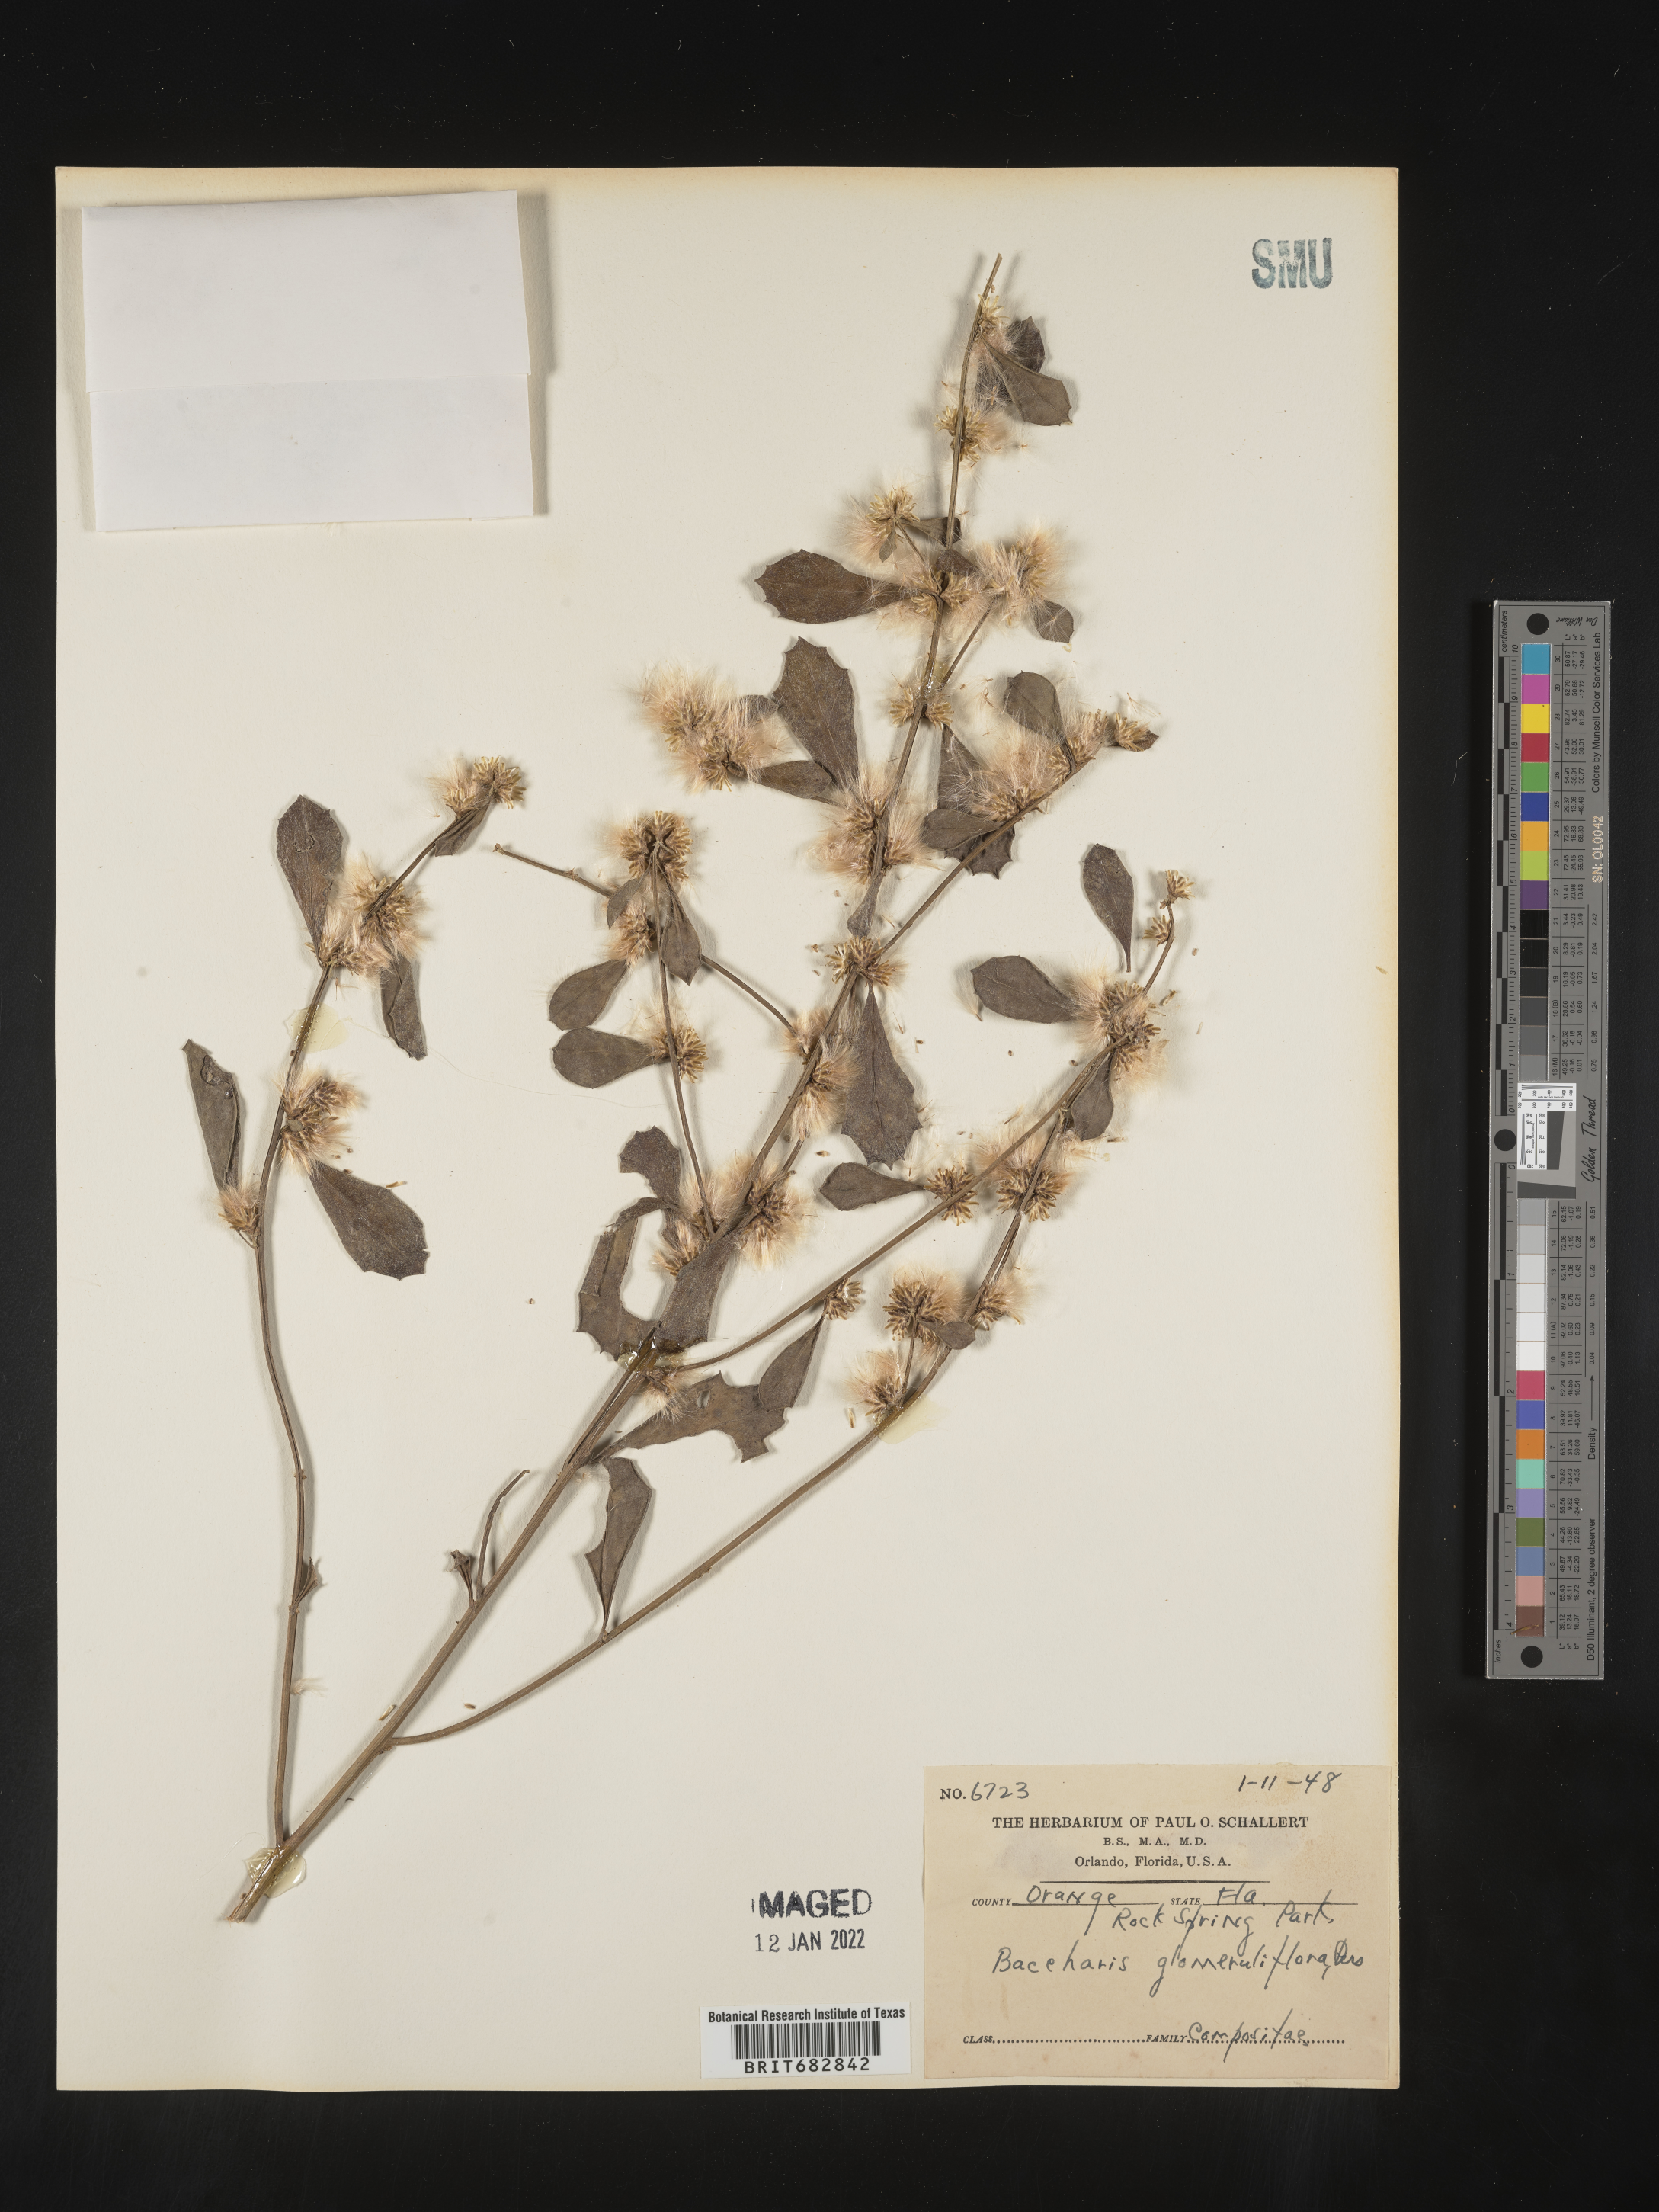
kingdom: Plantae
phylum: Tracheophyta
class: Magnoliopsida
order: Asterales
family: Asteraceae
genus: Baccharis
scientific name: Baccharis glomeruliflora
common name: Silverling groundsel bush
